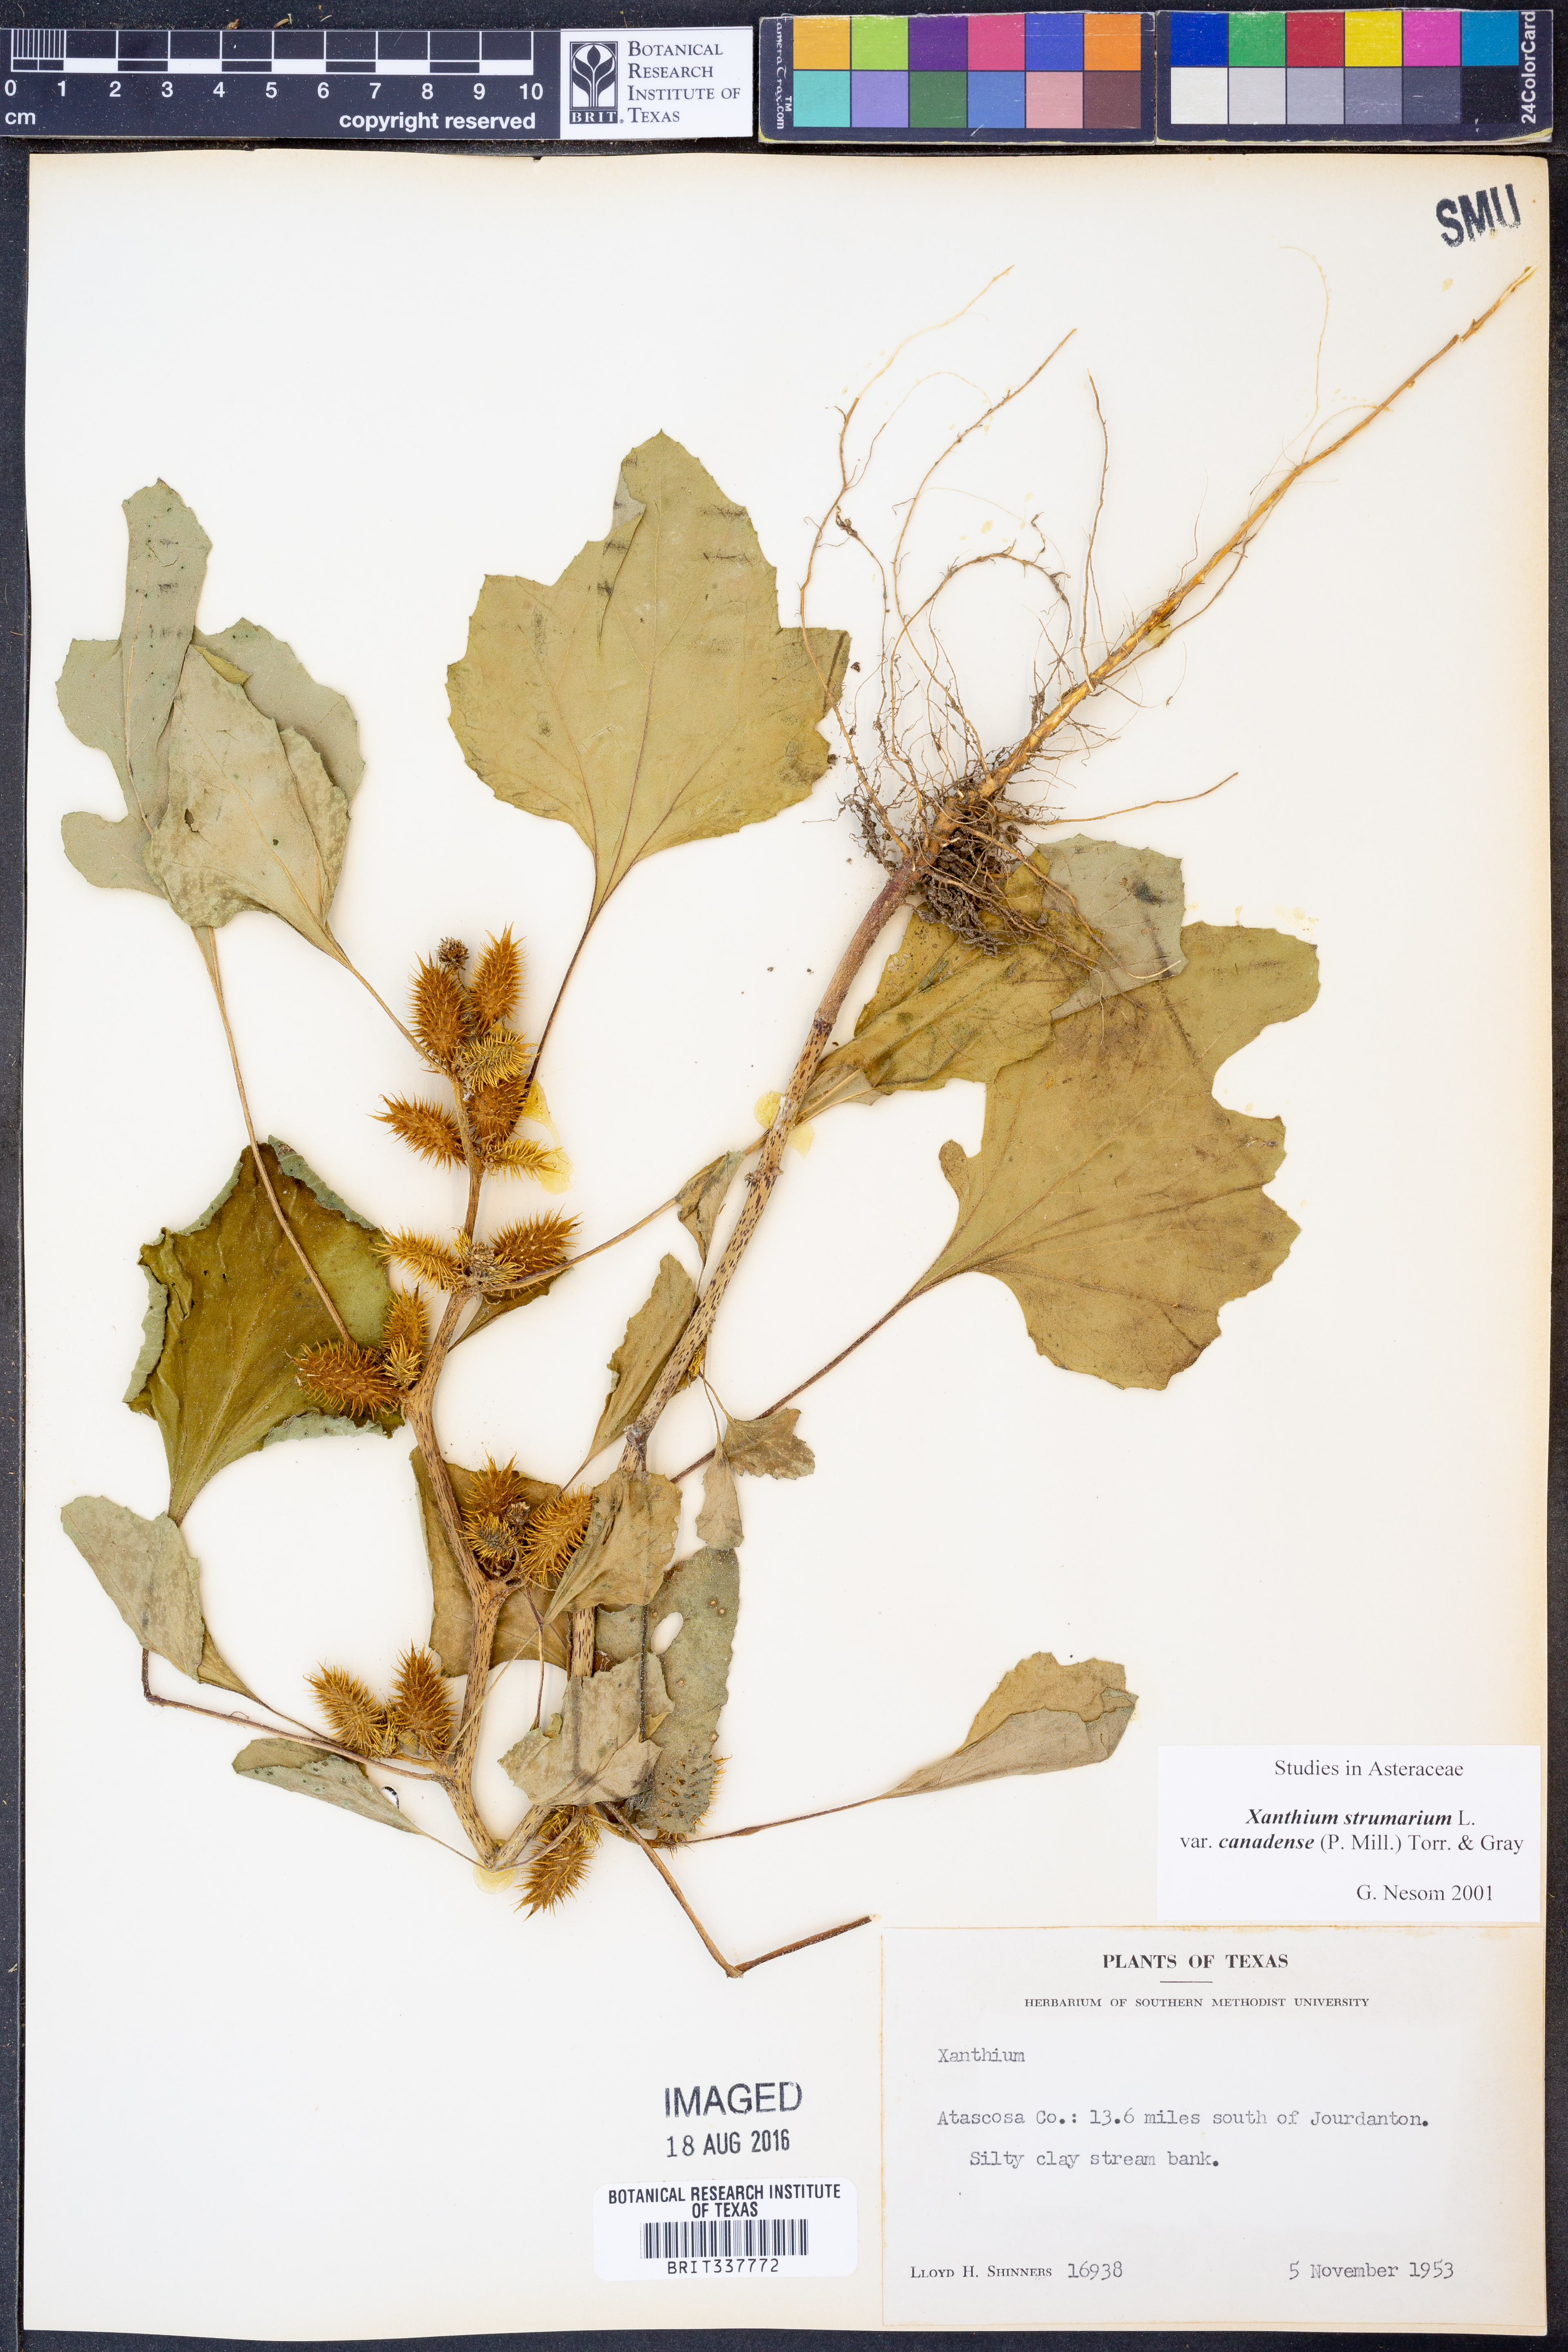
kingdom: Plantae
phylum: Tracheophyta
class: Magnoliopsida
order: Asterales
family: Asteraceae
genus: Xanthium
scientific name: Xanthium orientale
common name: Californian burr
